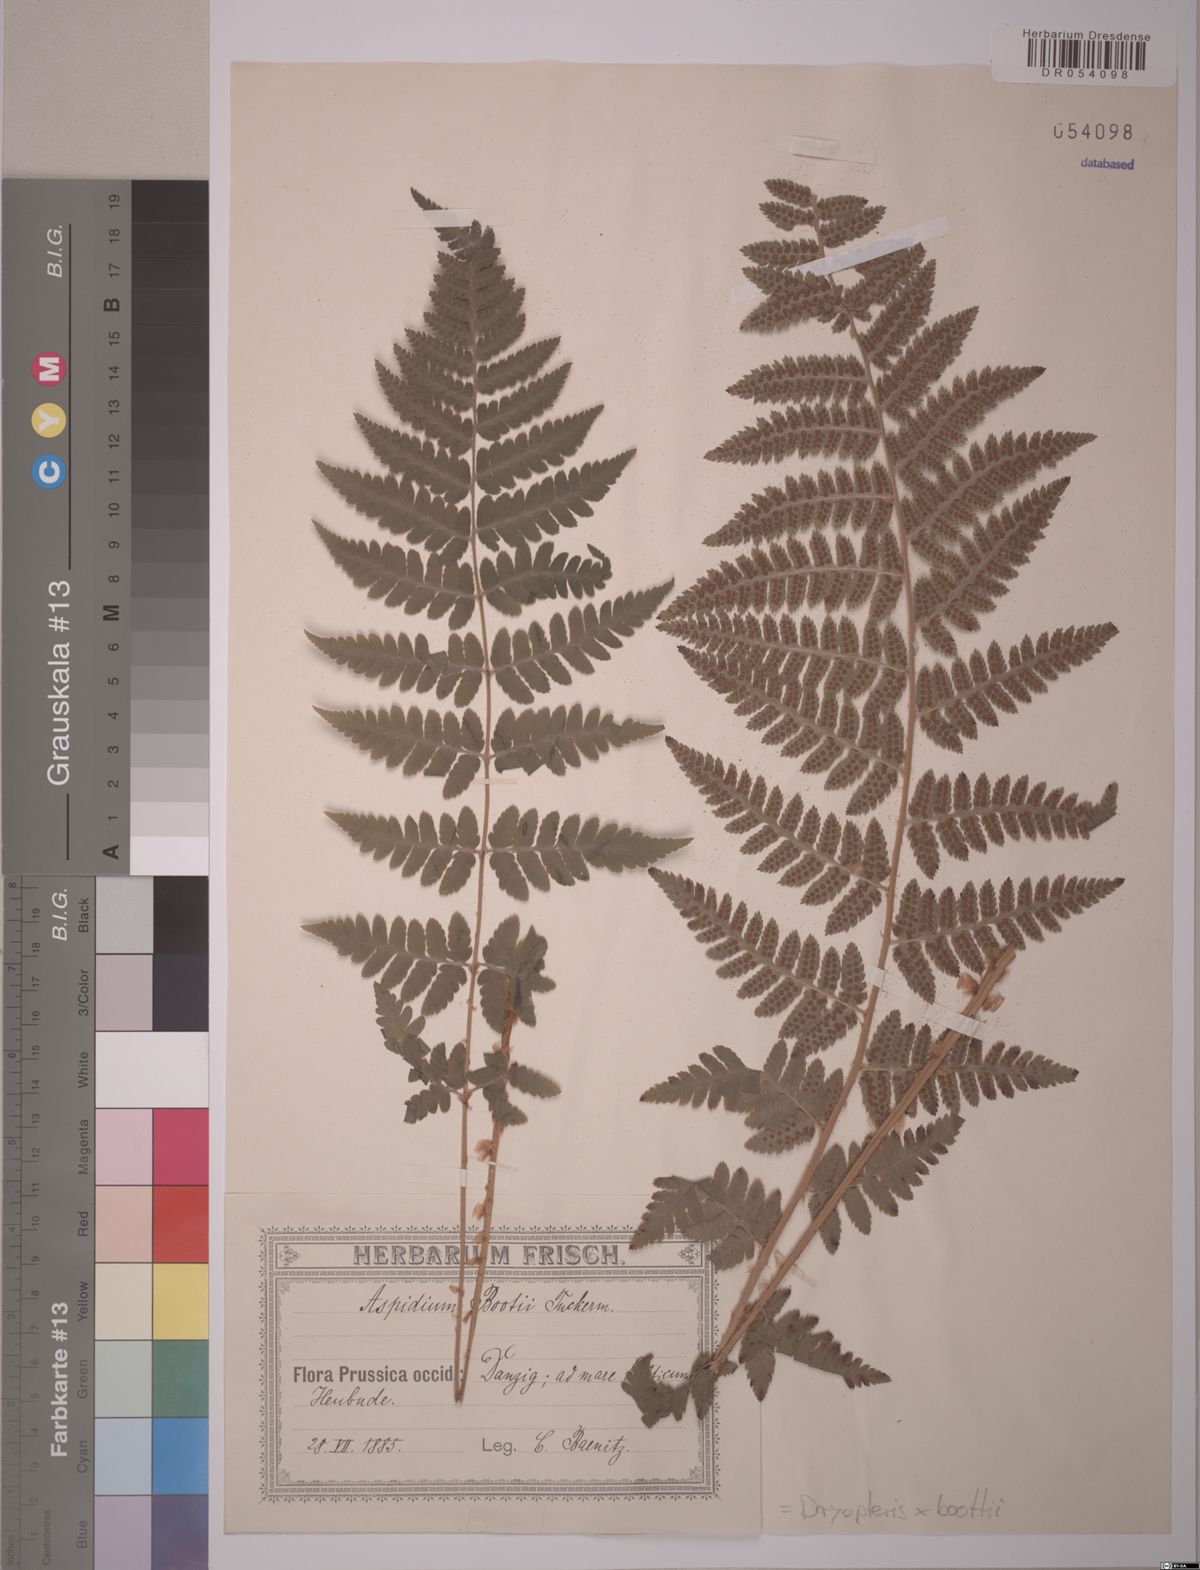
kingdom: Plantae
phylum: Tracheophyta
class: Polypodiopsida
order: Polypodiales
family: Dryopteridaceae
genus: Dryopteris
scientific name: Dryopteris boottii
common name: Boott's fern
